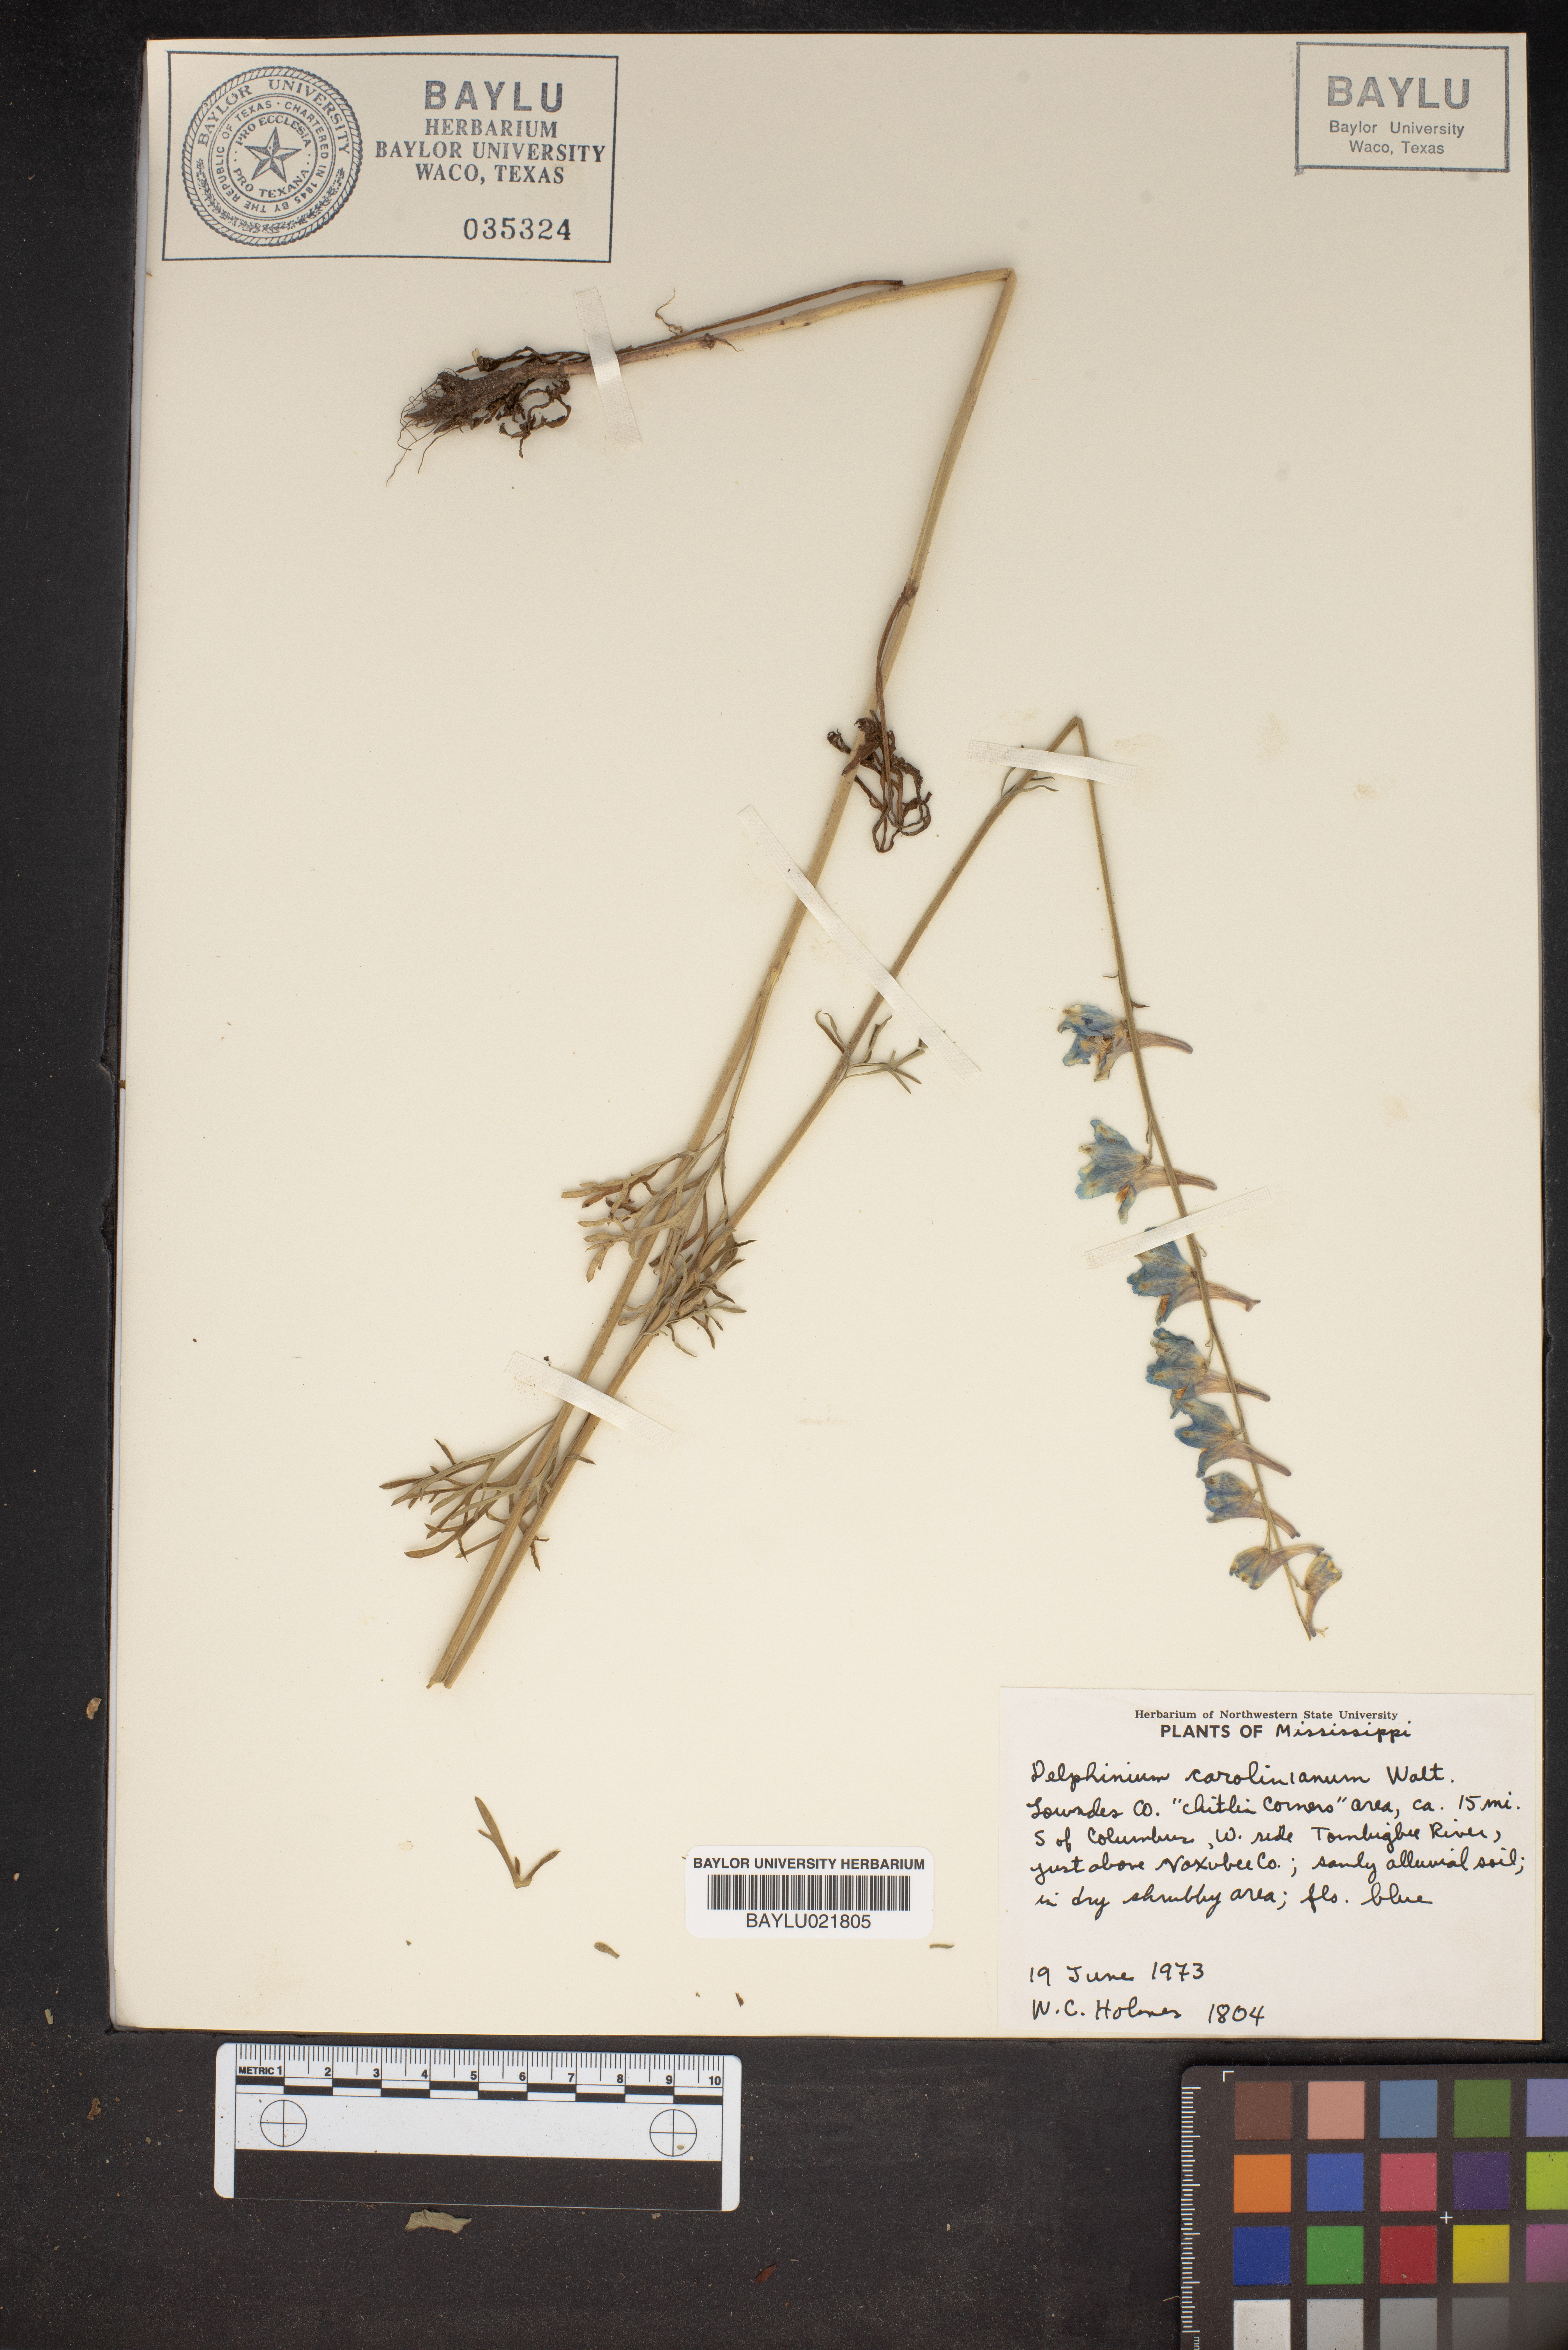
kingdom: Plantae
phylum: Tracheophyta
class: Magnoliopsida
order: Ranunculales
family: Ranunculaceae
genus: Delphinium
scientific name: Delphinium carolinianum
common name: Carolina larkspur
